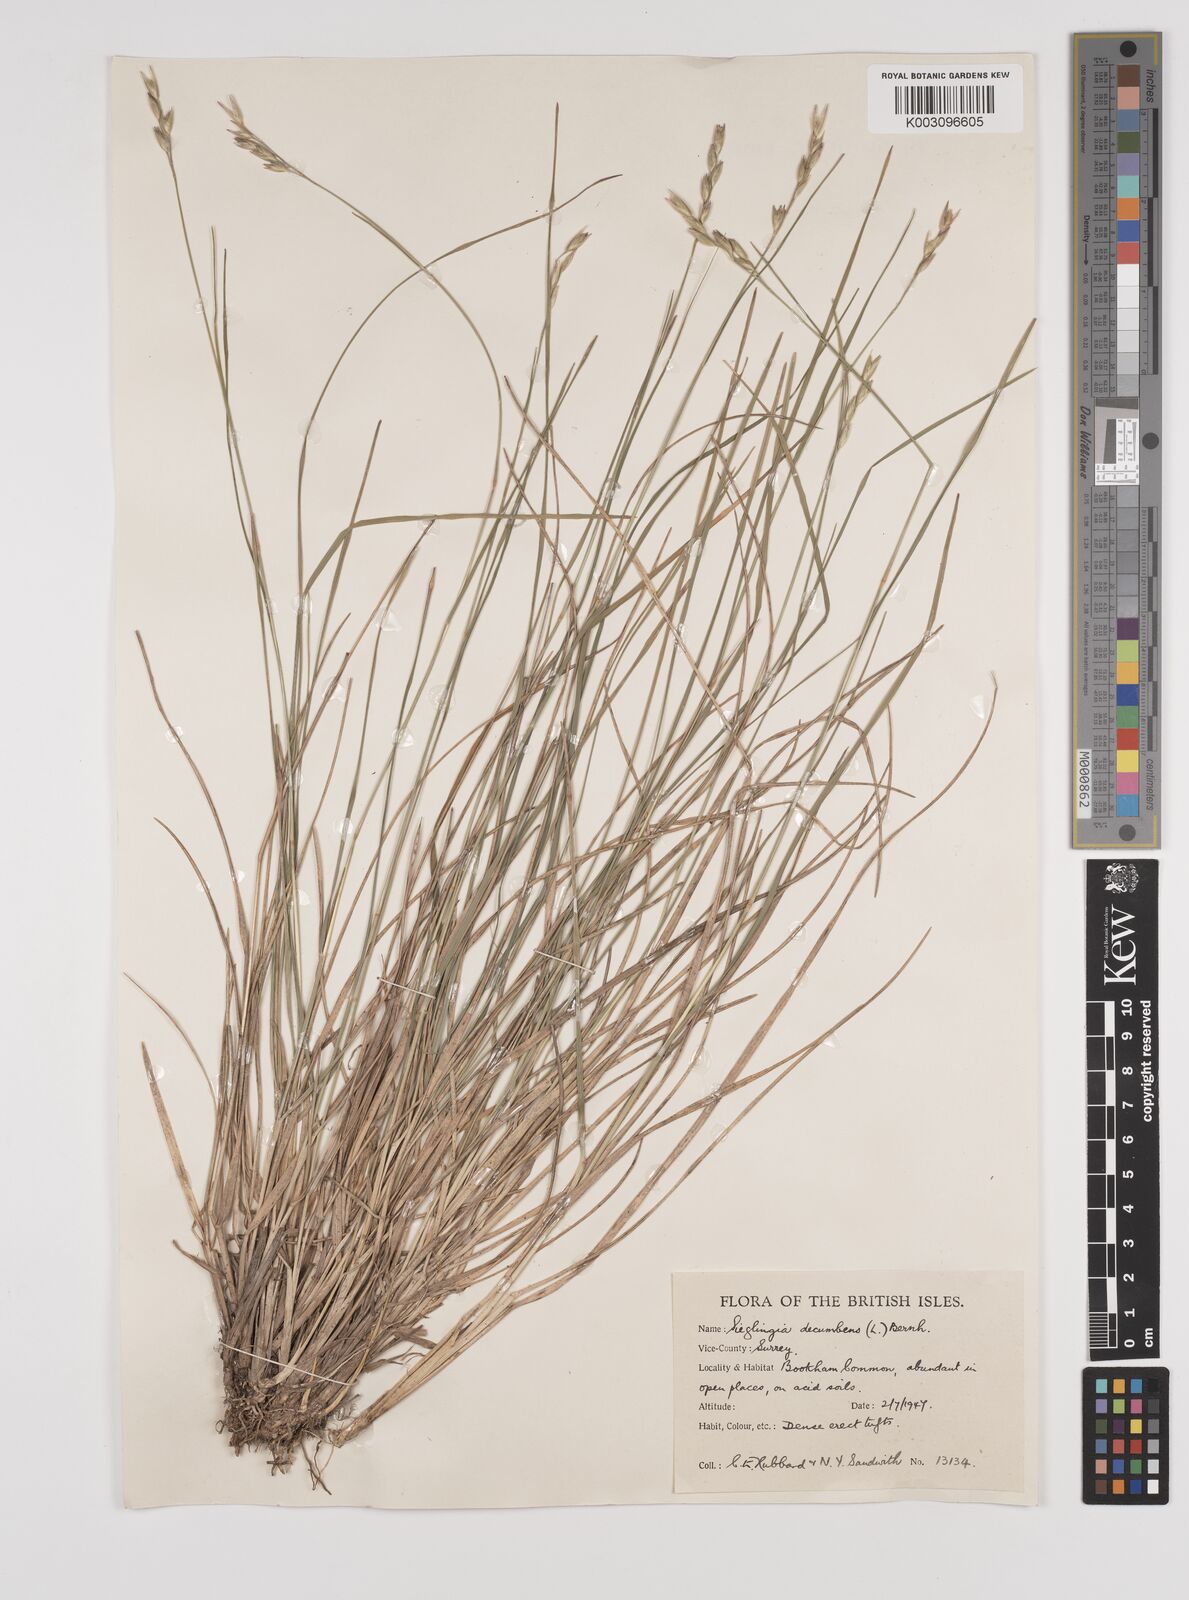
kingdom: Plantae
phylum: Tracheophyta
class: Liliopsida
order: Poales
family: Poaceae
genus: Danthonia
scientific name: Danthonia decumbens
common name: Common heathgrass
